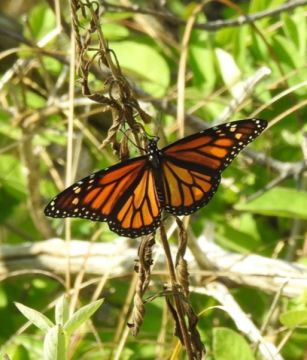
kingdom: Animalia
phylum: Arthropoda
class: Insecta
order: Lepidoptera
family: Nymphalidae
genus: Danaus
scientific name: Danaus plexippus
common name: Monarch
